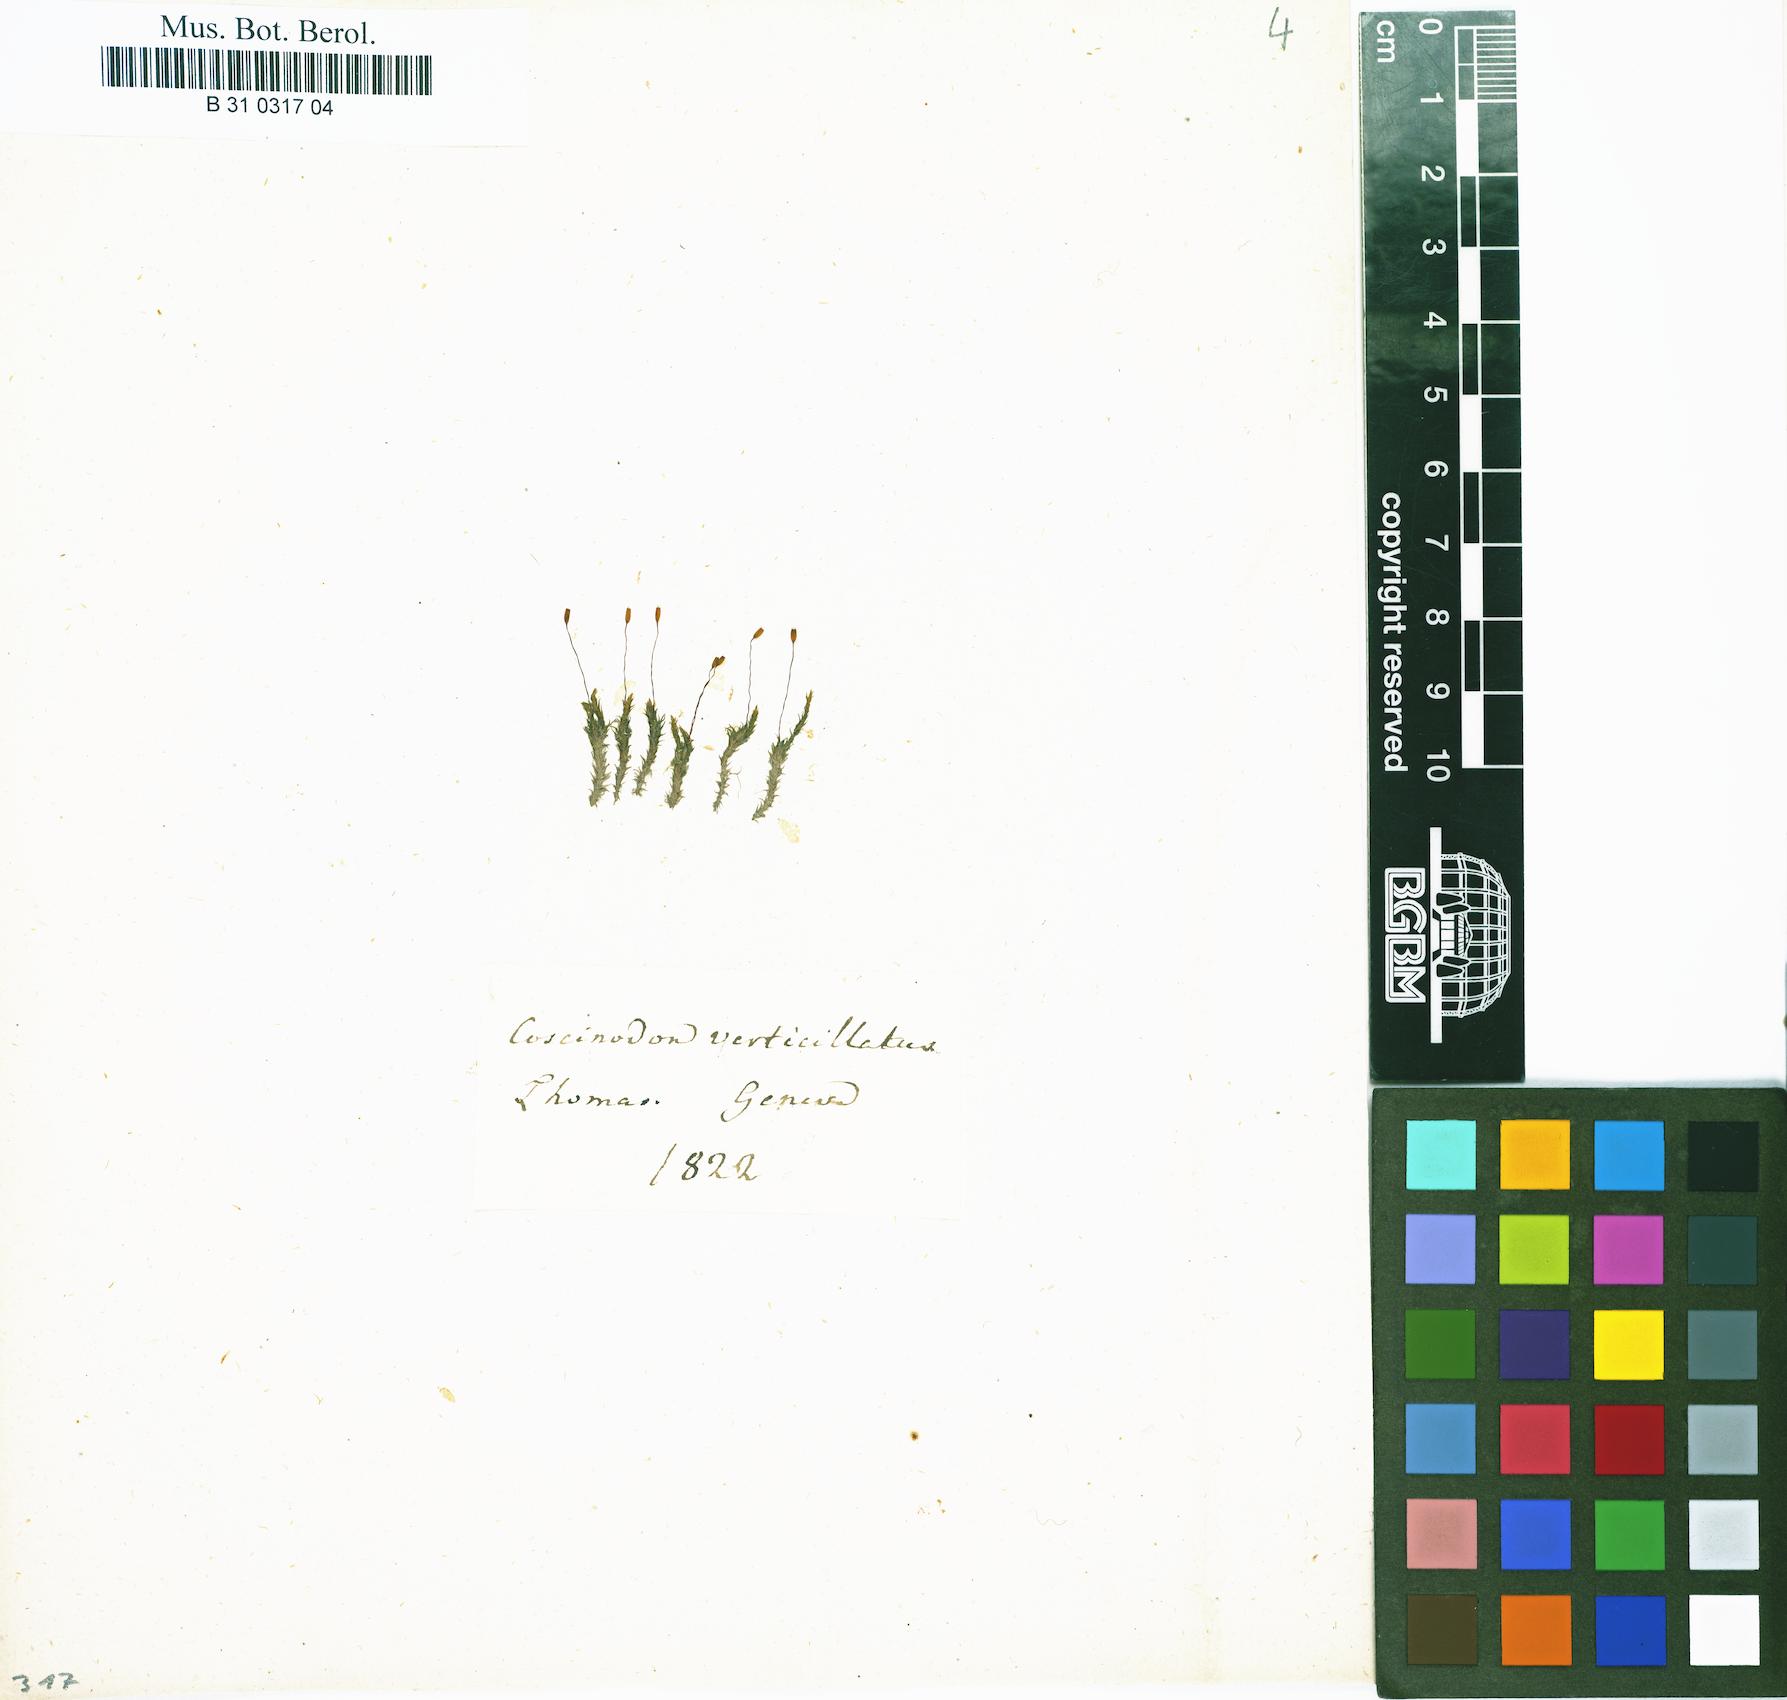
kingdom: Plantae
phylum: Bryophyta
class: Bryopsida
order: Pottiales
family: Pottiaceae
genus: Eucladium
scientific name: Eucladium verticillatum
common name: Whorled tufa-moss
